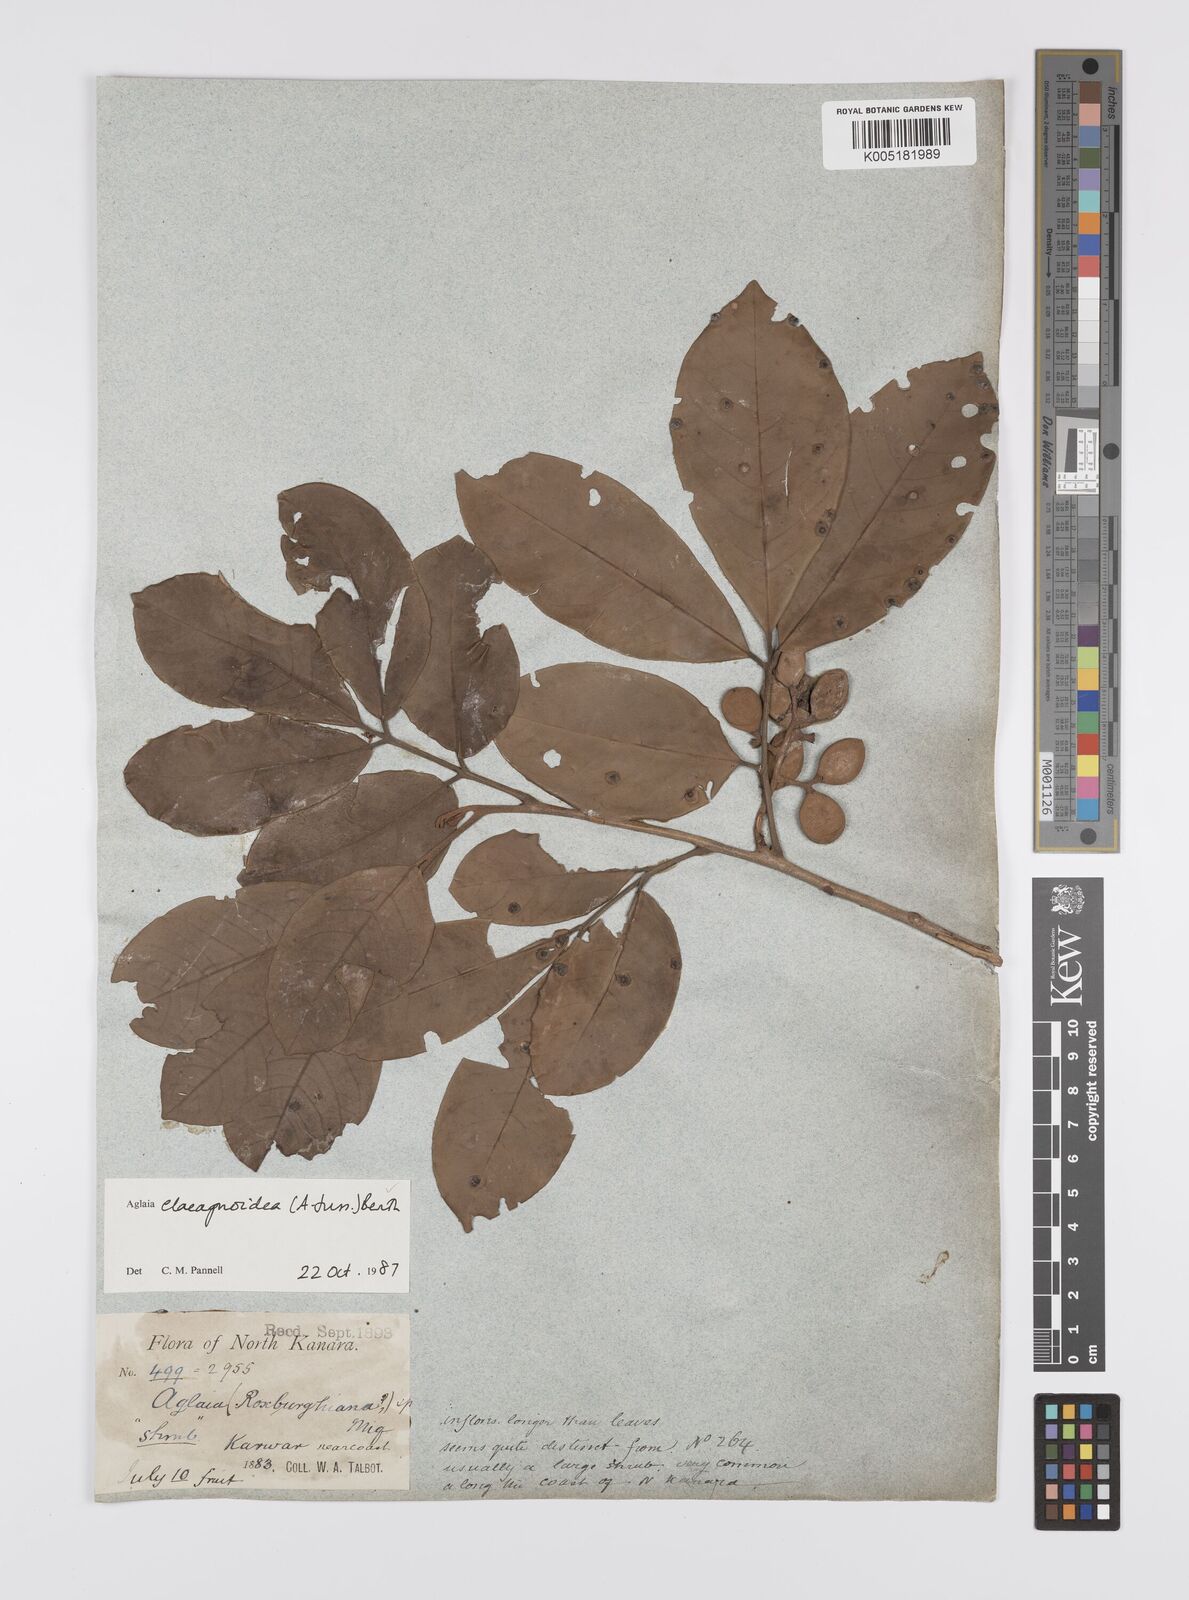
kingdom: Plantae
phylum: Tracheophyta
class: Magnoliopsida
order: Sapindales
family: Meliaceae
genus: Aglaia
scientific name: Aglaia elaeagnoidea
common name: Droopyleaf
